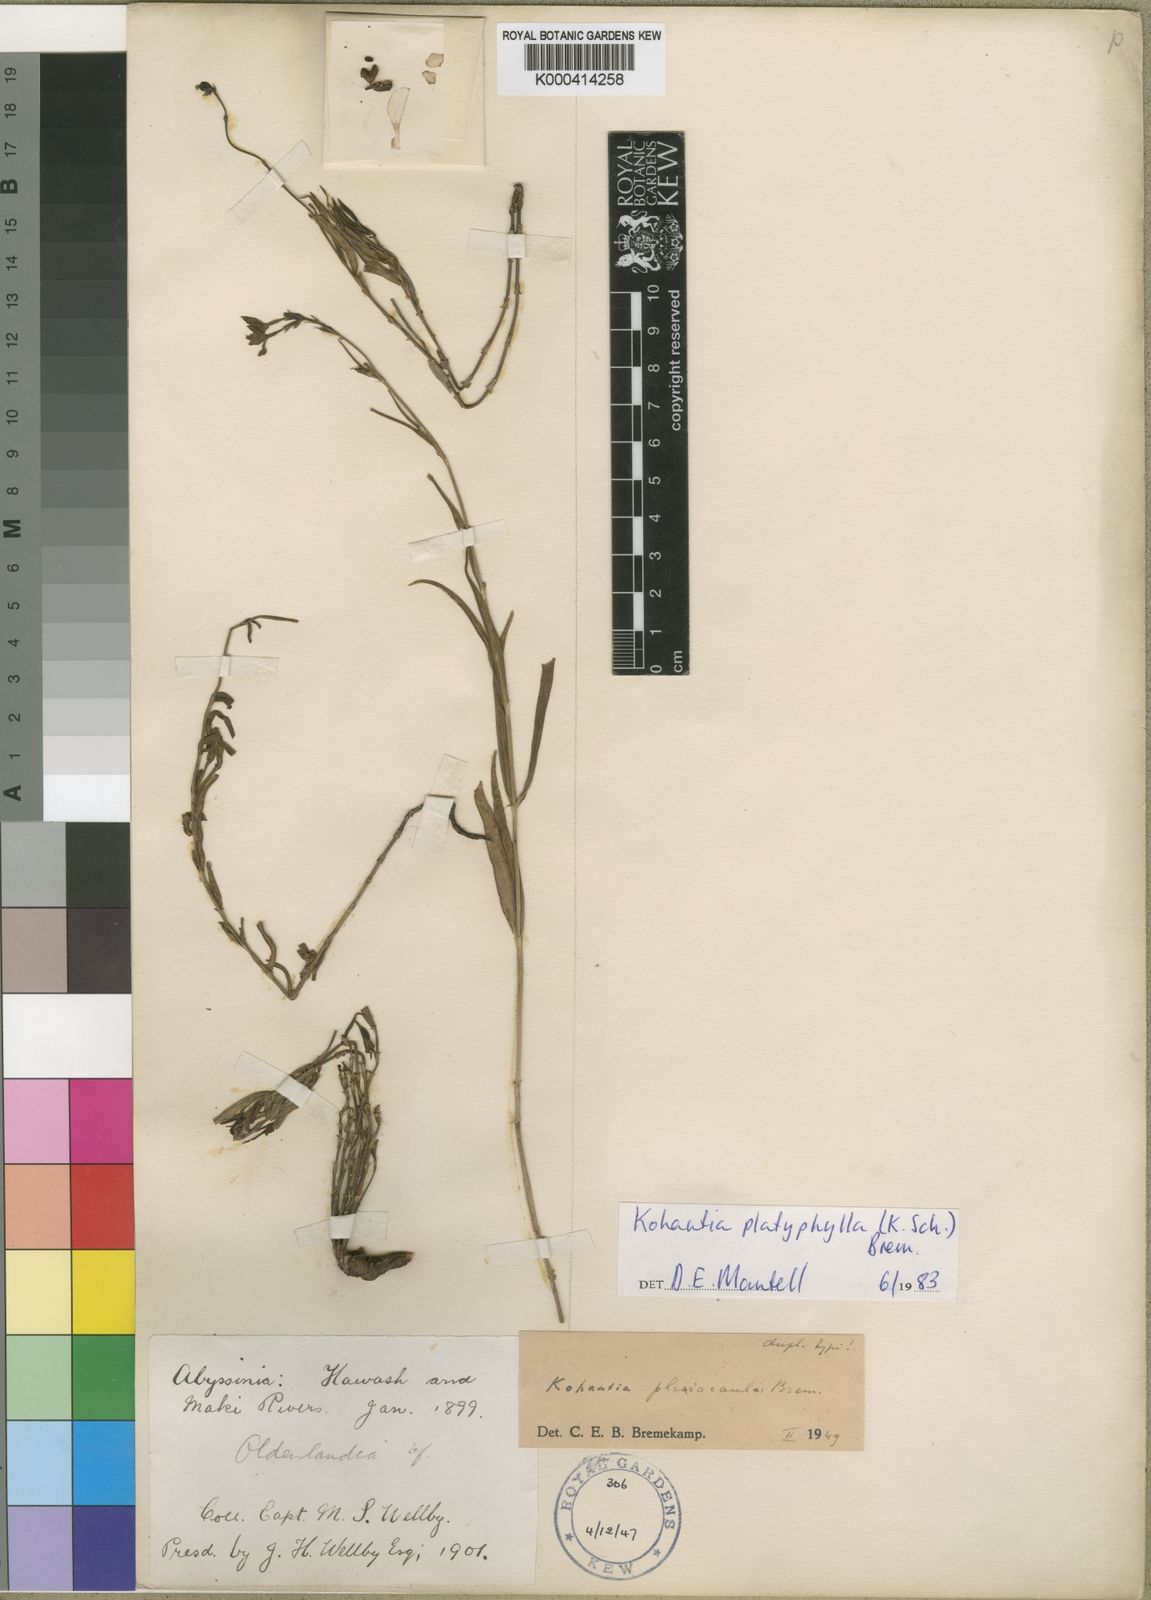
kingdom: Plantae
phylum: Tracheophyta
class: Magnoliopsida
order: Gentianales
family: Rubiaceae
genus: Kohautia
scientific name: Kohautia platyphylla
